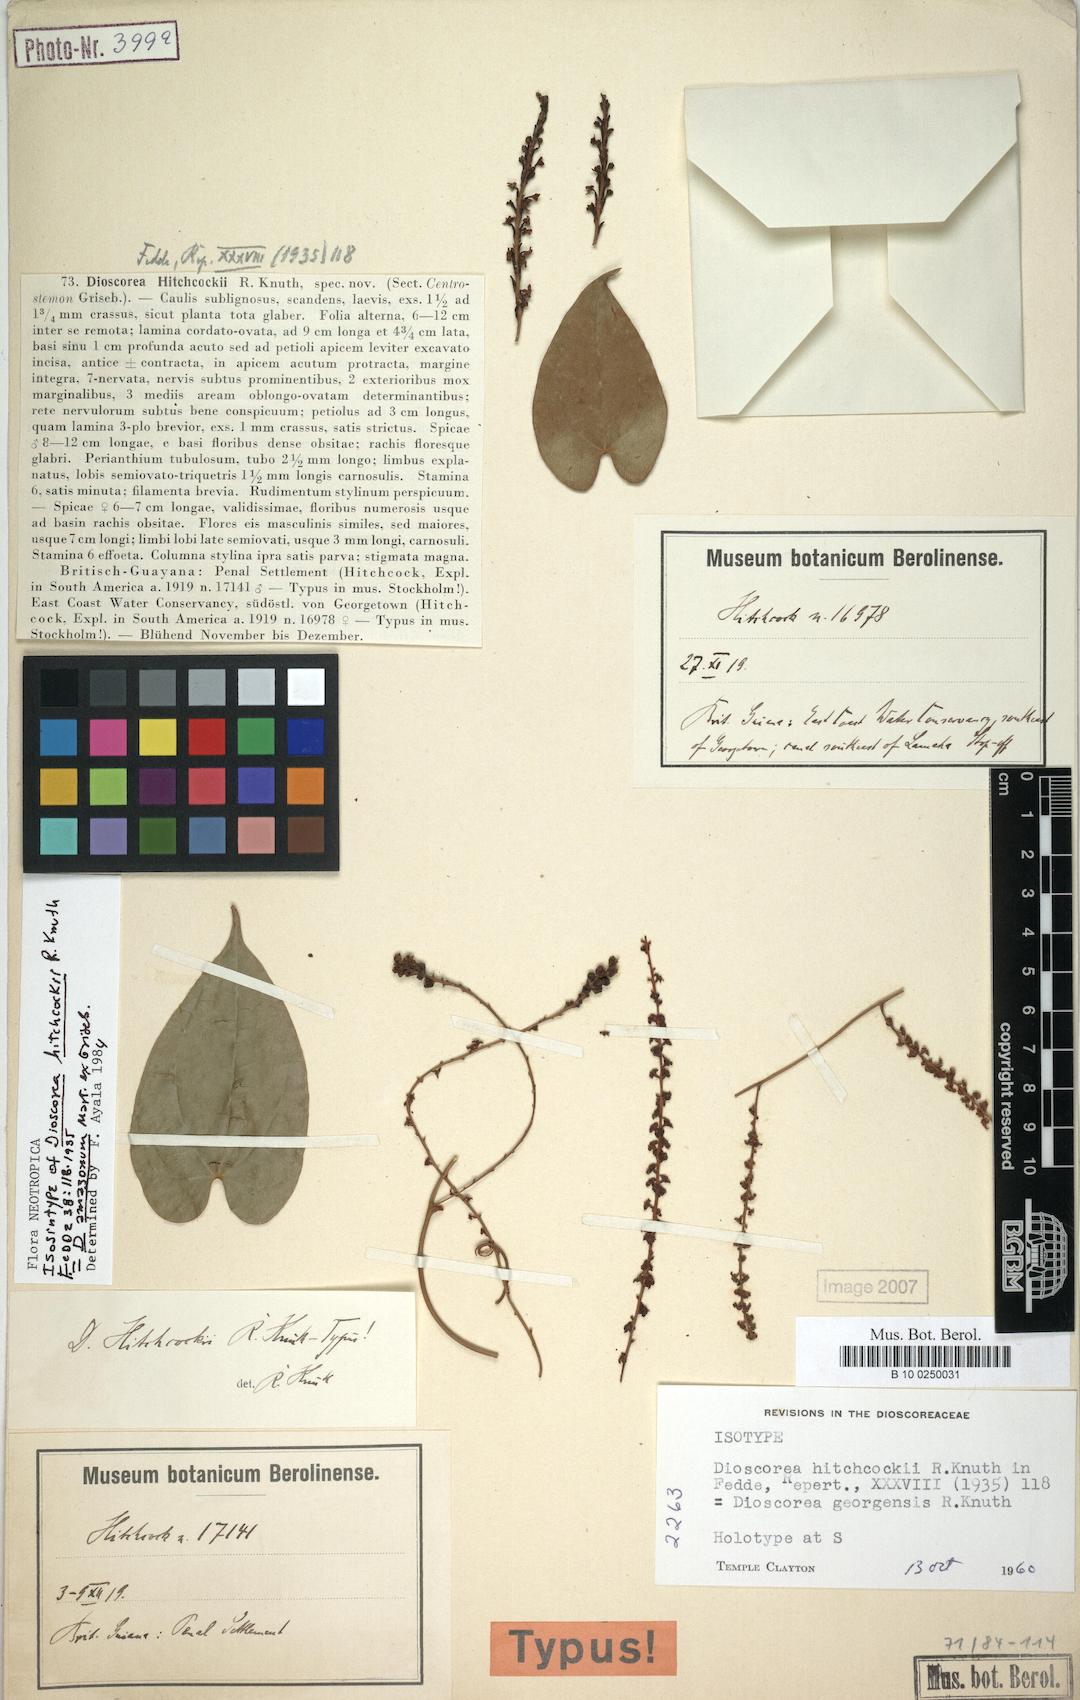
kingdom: Plantae
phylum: Tracheophyta
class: Liliopsida
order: Dioscoreales
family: Dioscoreaceae
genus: Dioscorea
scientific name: Dioscorea amazonum
